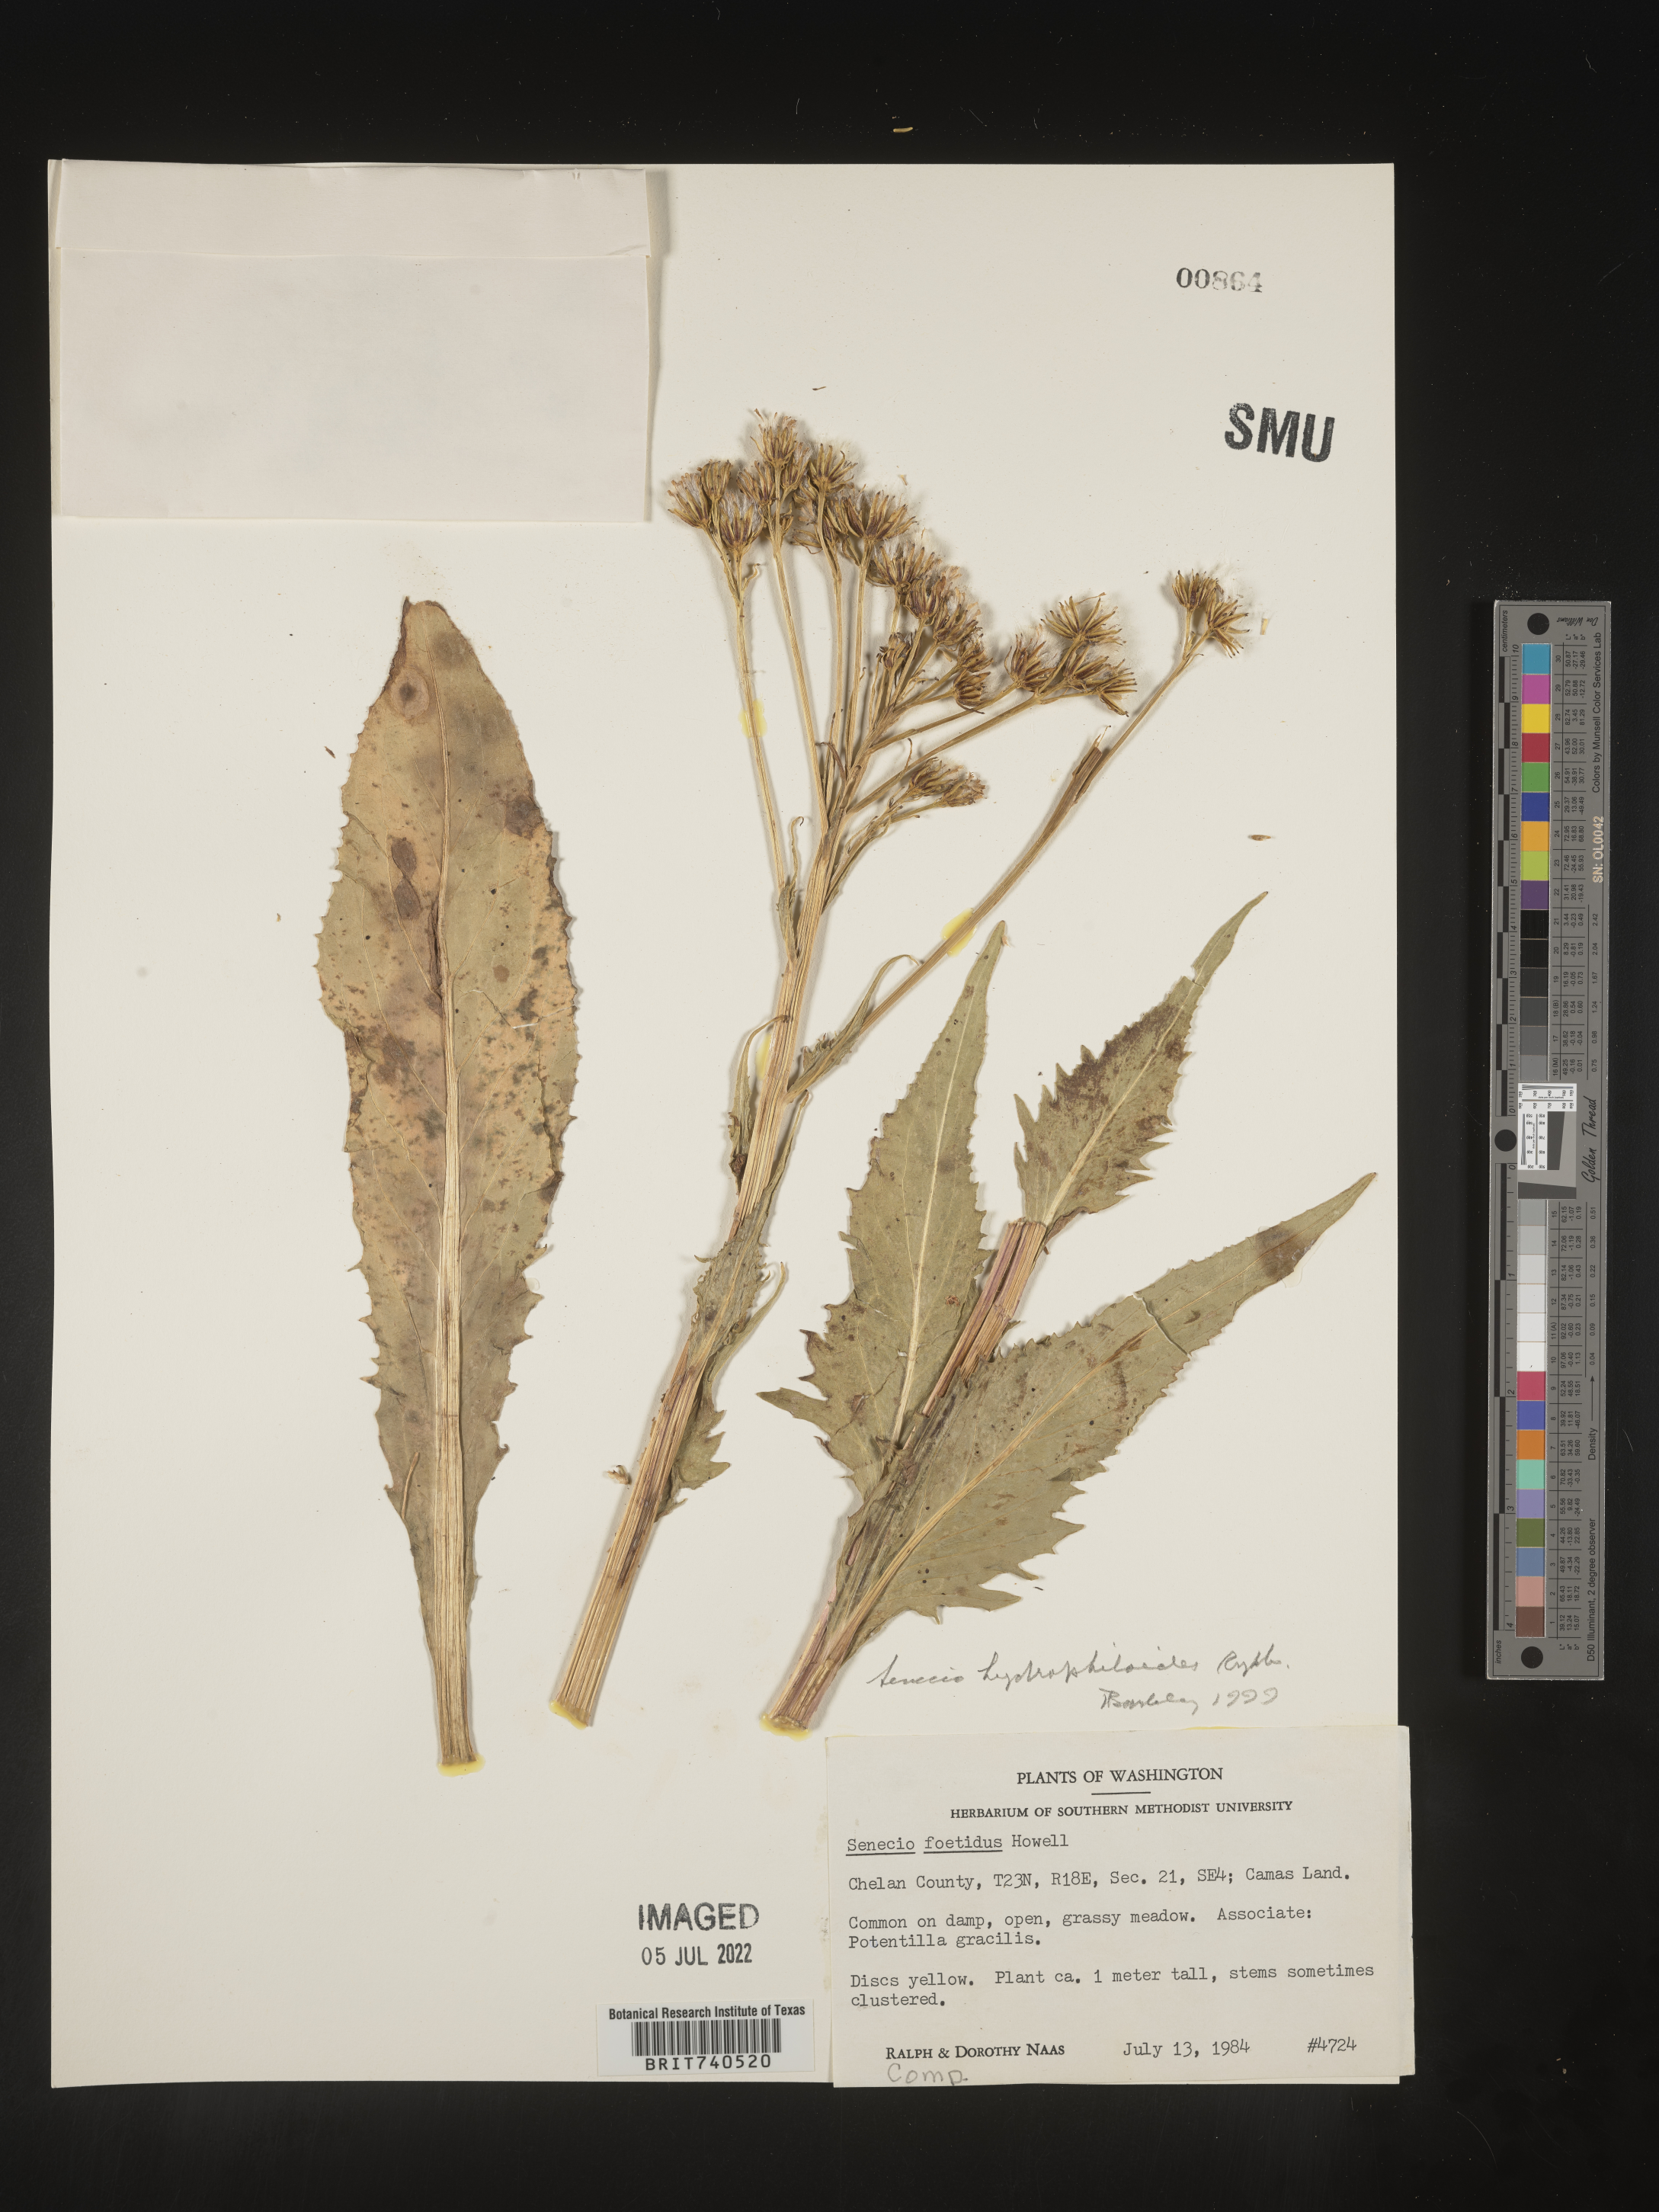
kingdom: Plantae
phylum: Tracheophyta
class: Magnoliopsida
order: Asterales
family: Asteraceae
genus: Senecio
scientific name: Senecio hydrophiloides
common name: Stout meadow groundsel
